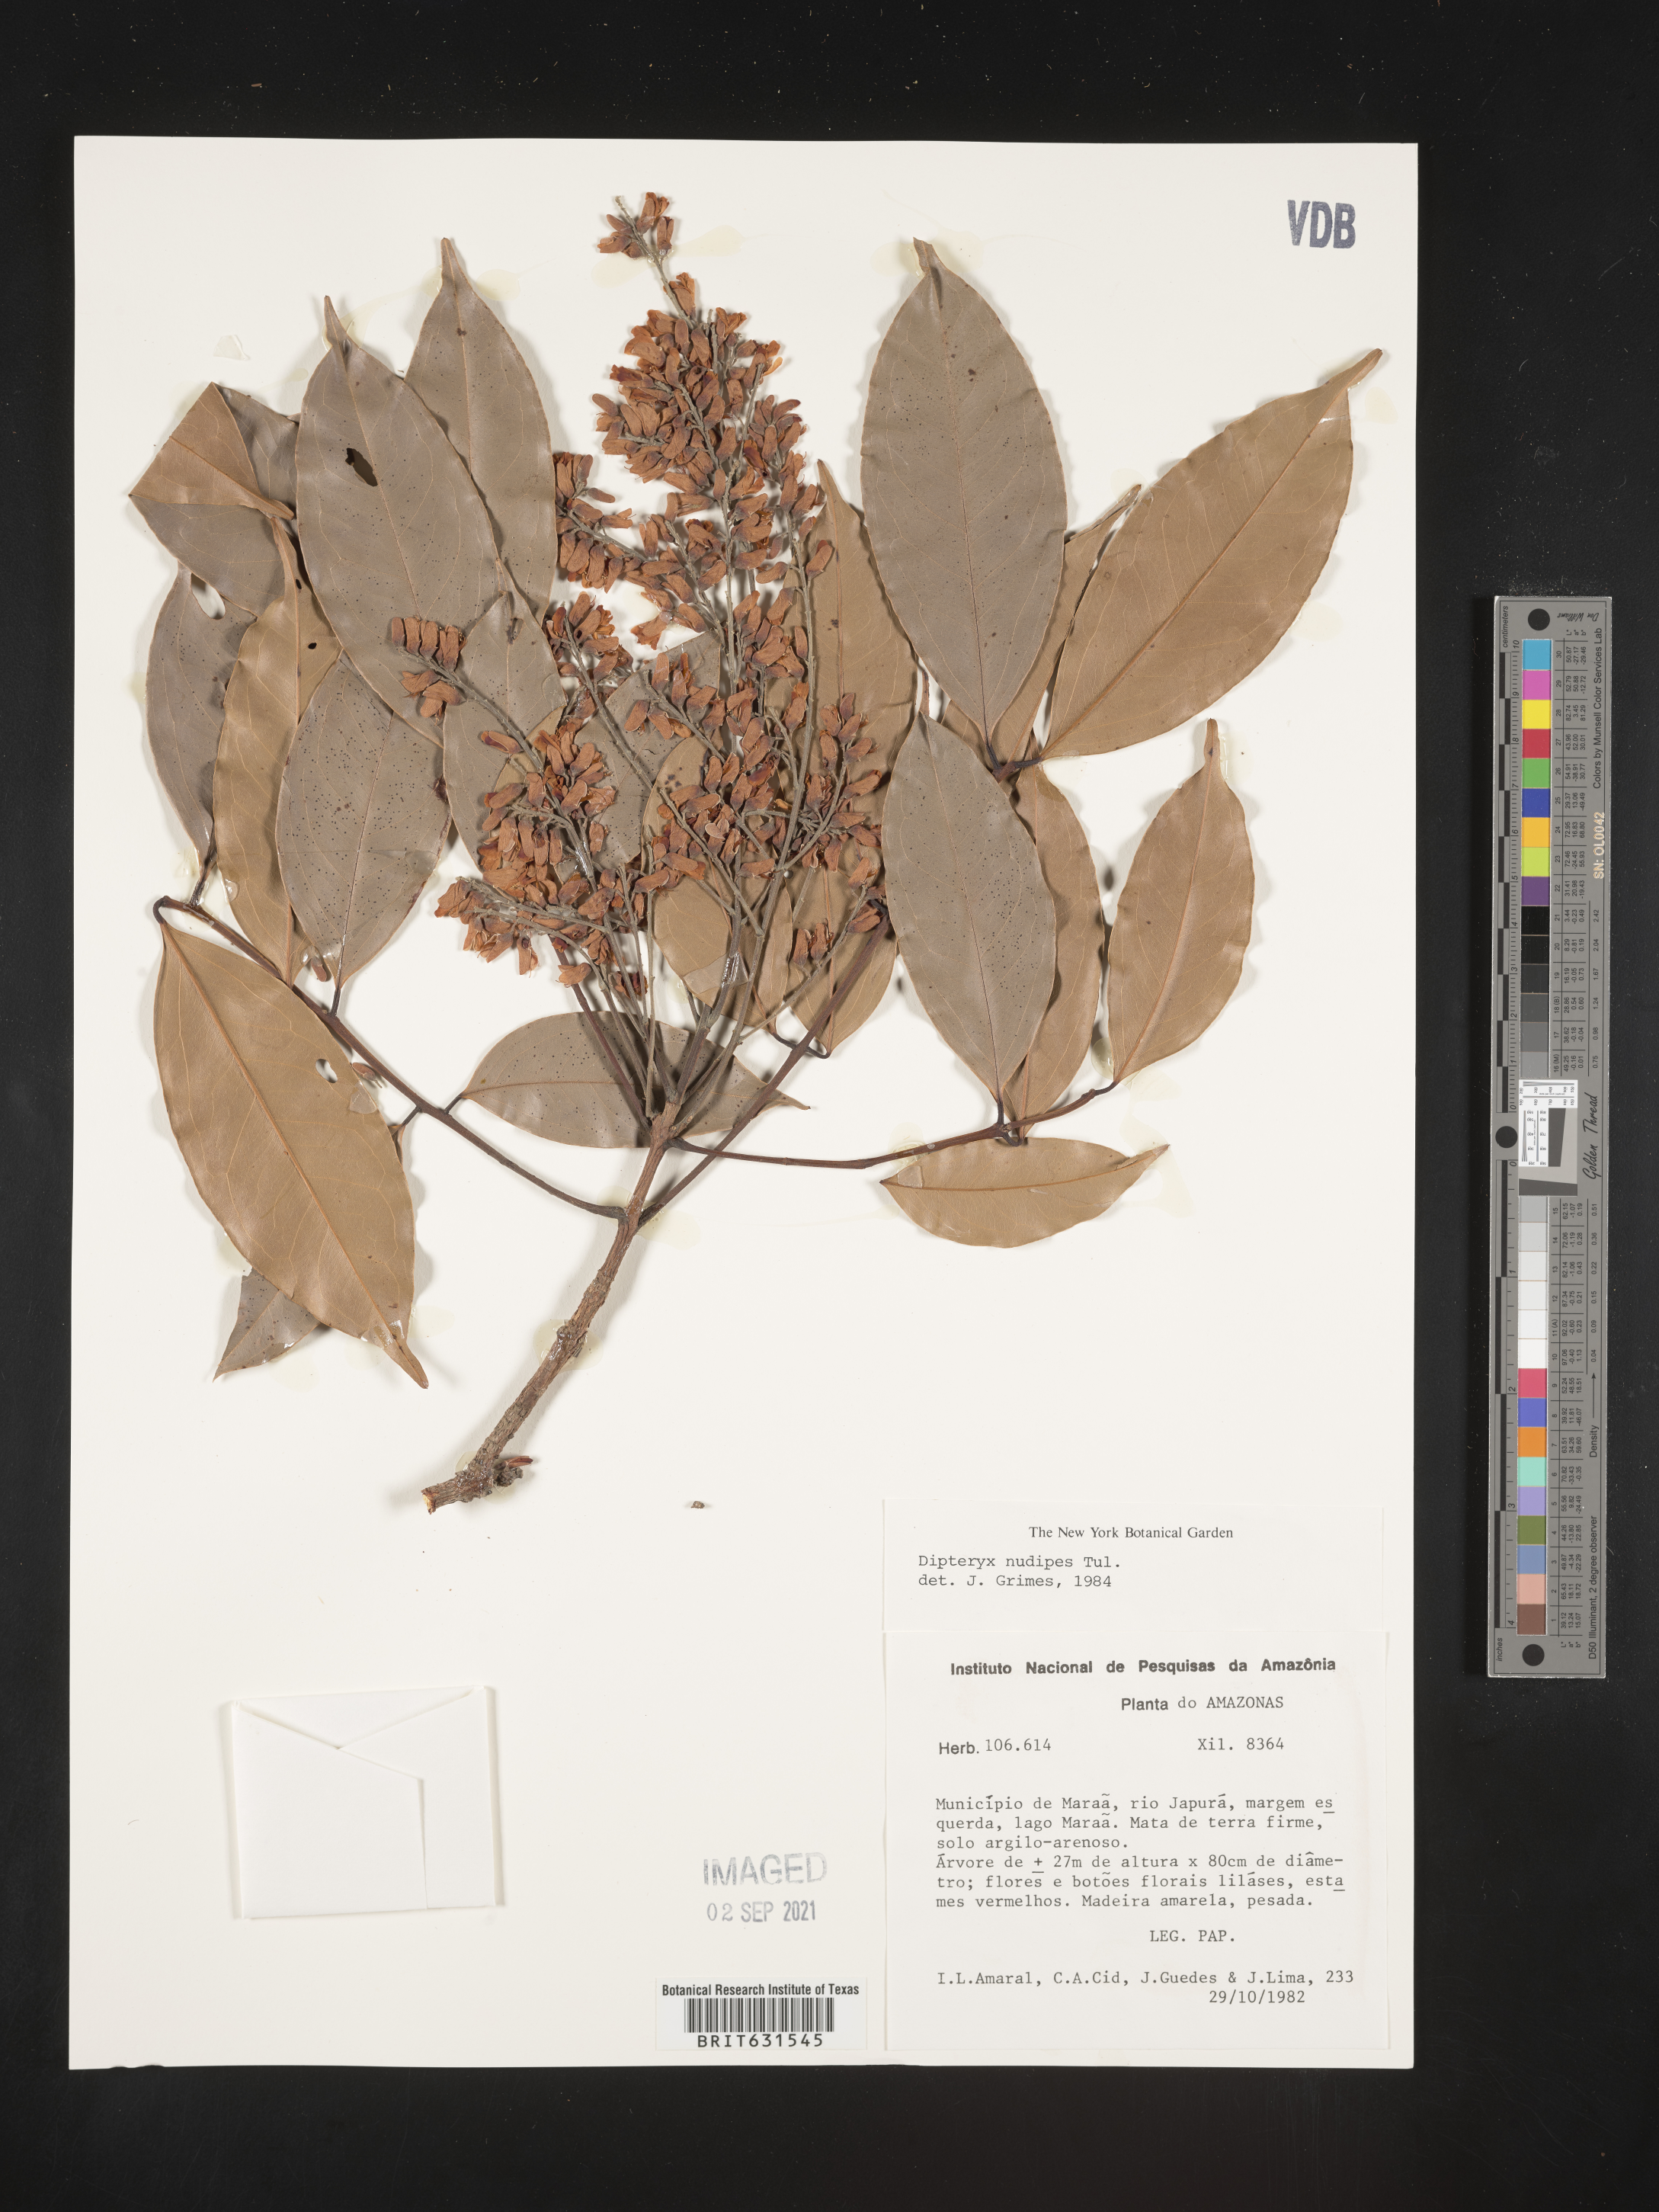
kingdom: Plantae
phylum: Tracheophyta
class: Magnoliopsida
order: Fabales
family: Fabaceae
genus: Taralea
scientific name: Taralea nudipes
